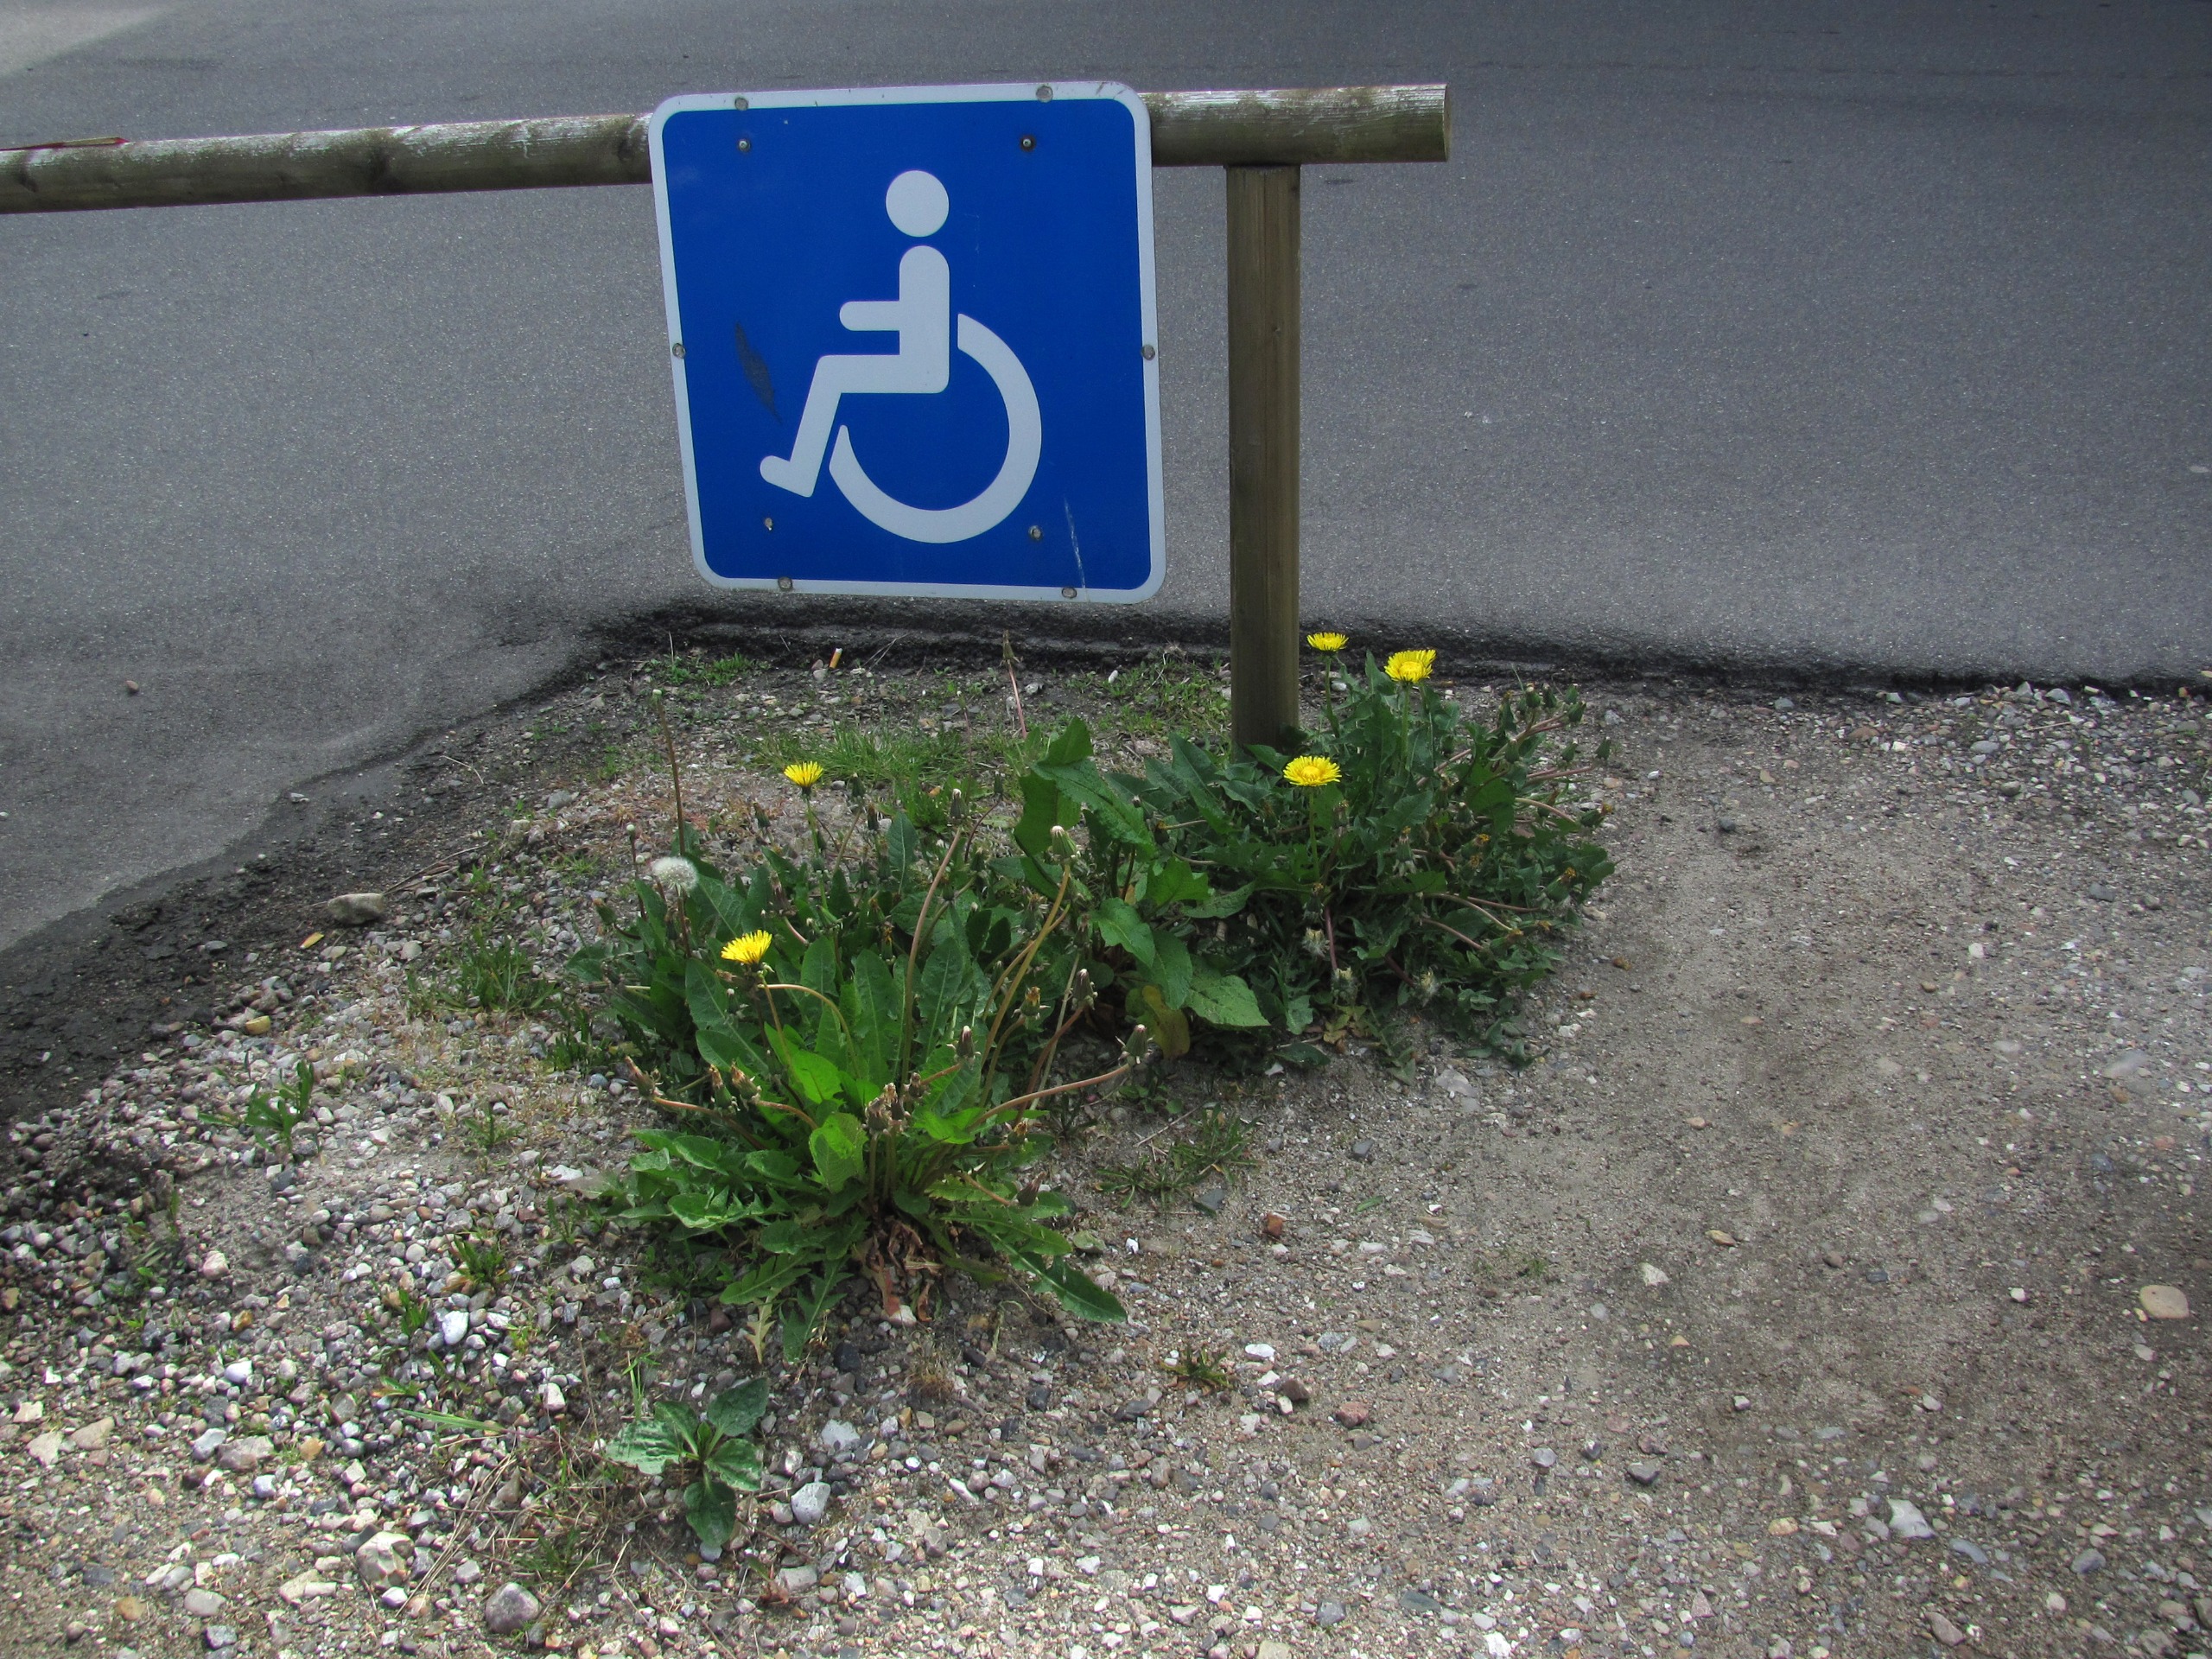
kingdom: Plantae
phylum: Tracheophyta
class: Magnoliopsida
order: Asterales
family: Asteraceae
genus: Taraxacum
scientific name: Taraxacum
